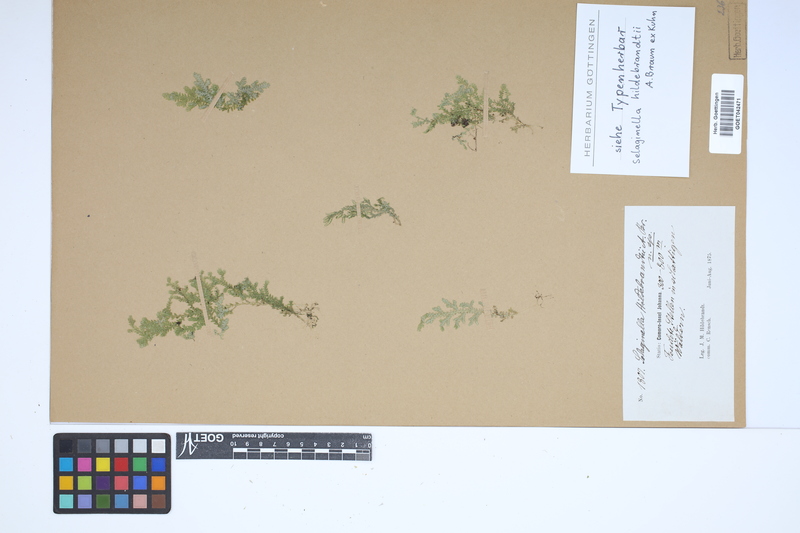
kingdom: Plantae
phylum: Tracheophyta
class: Lycopodiopsida
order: Selaginellales
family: Selaginellaceae
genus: Selaginella
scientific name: Selaginella hildebrandtii
